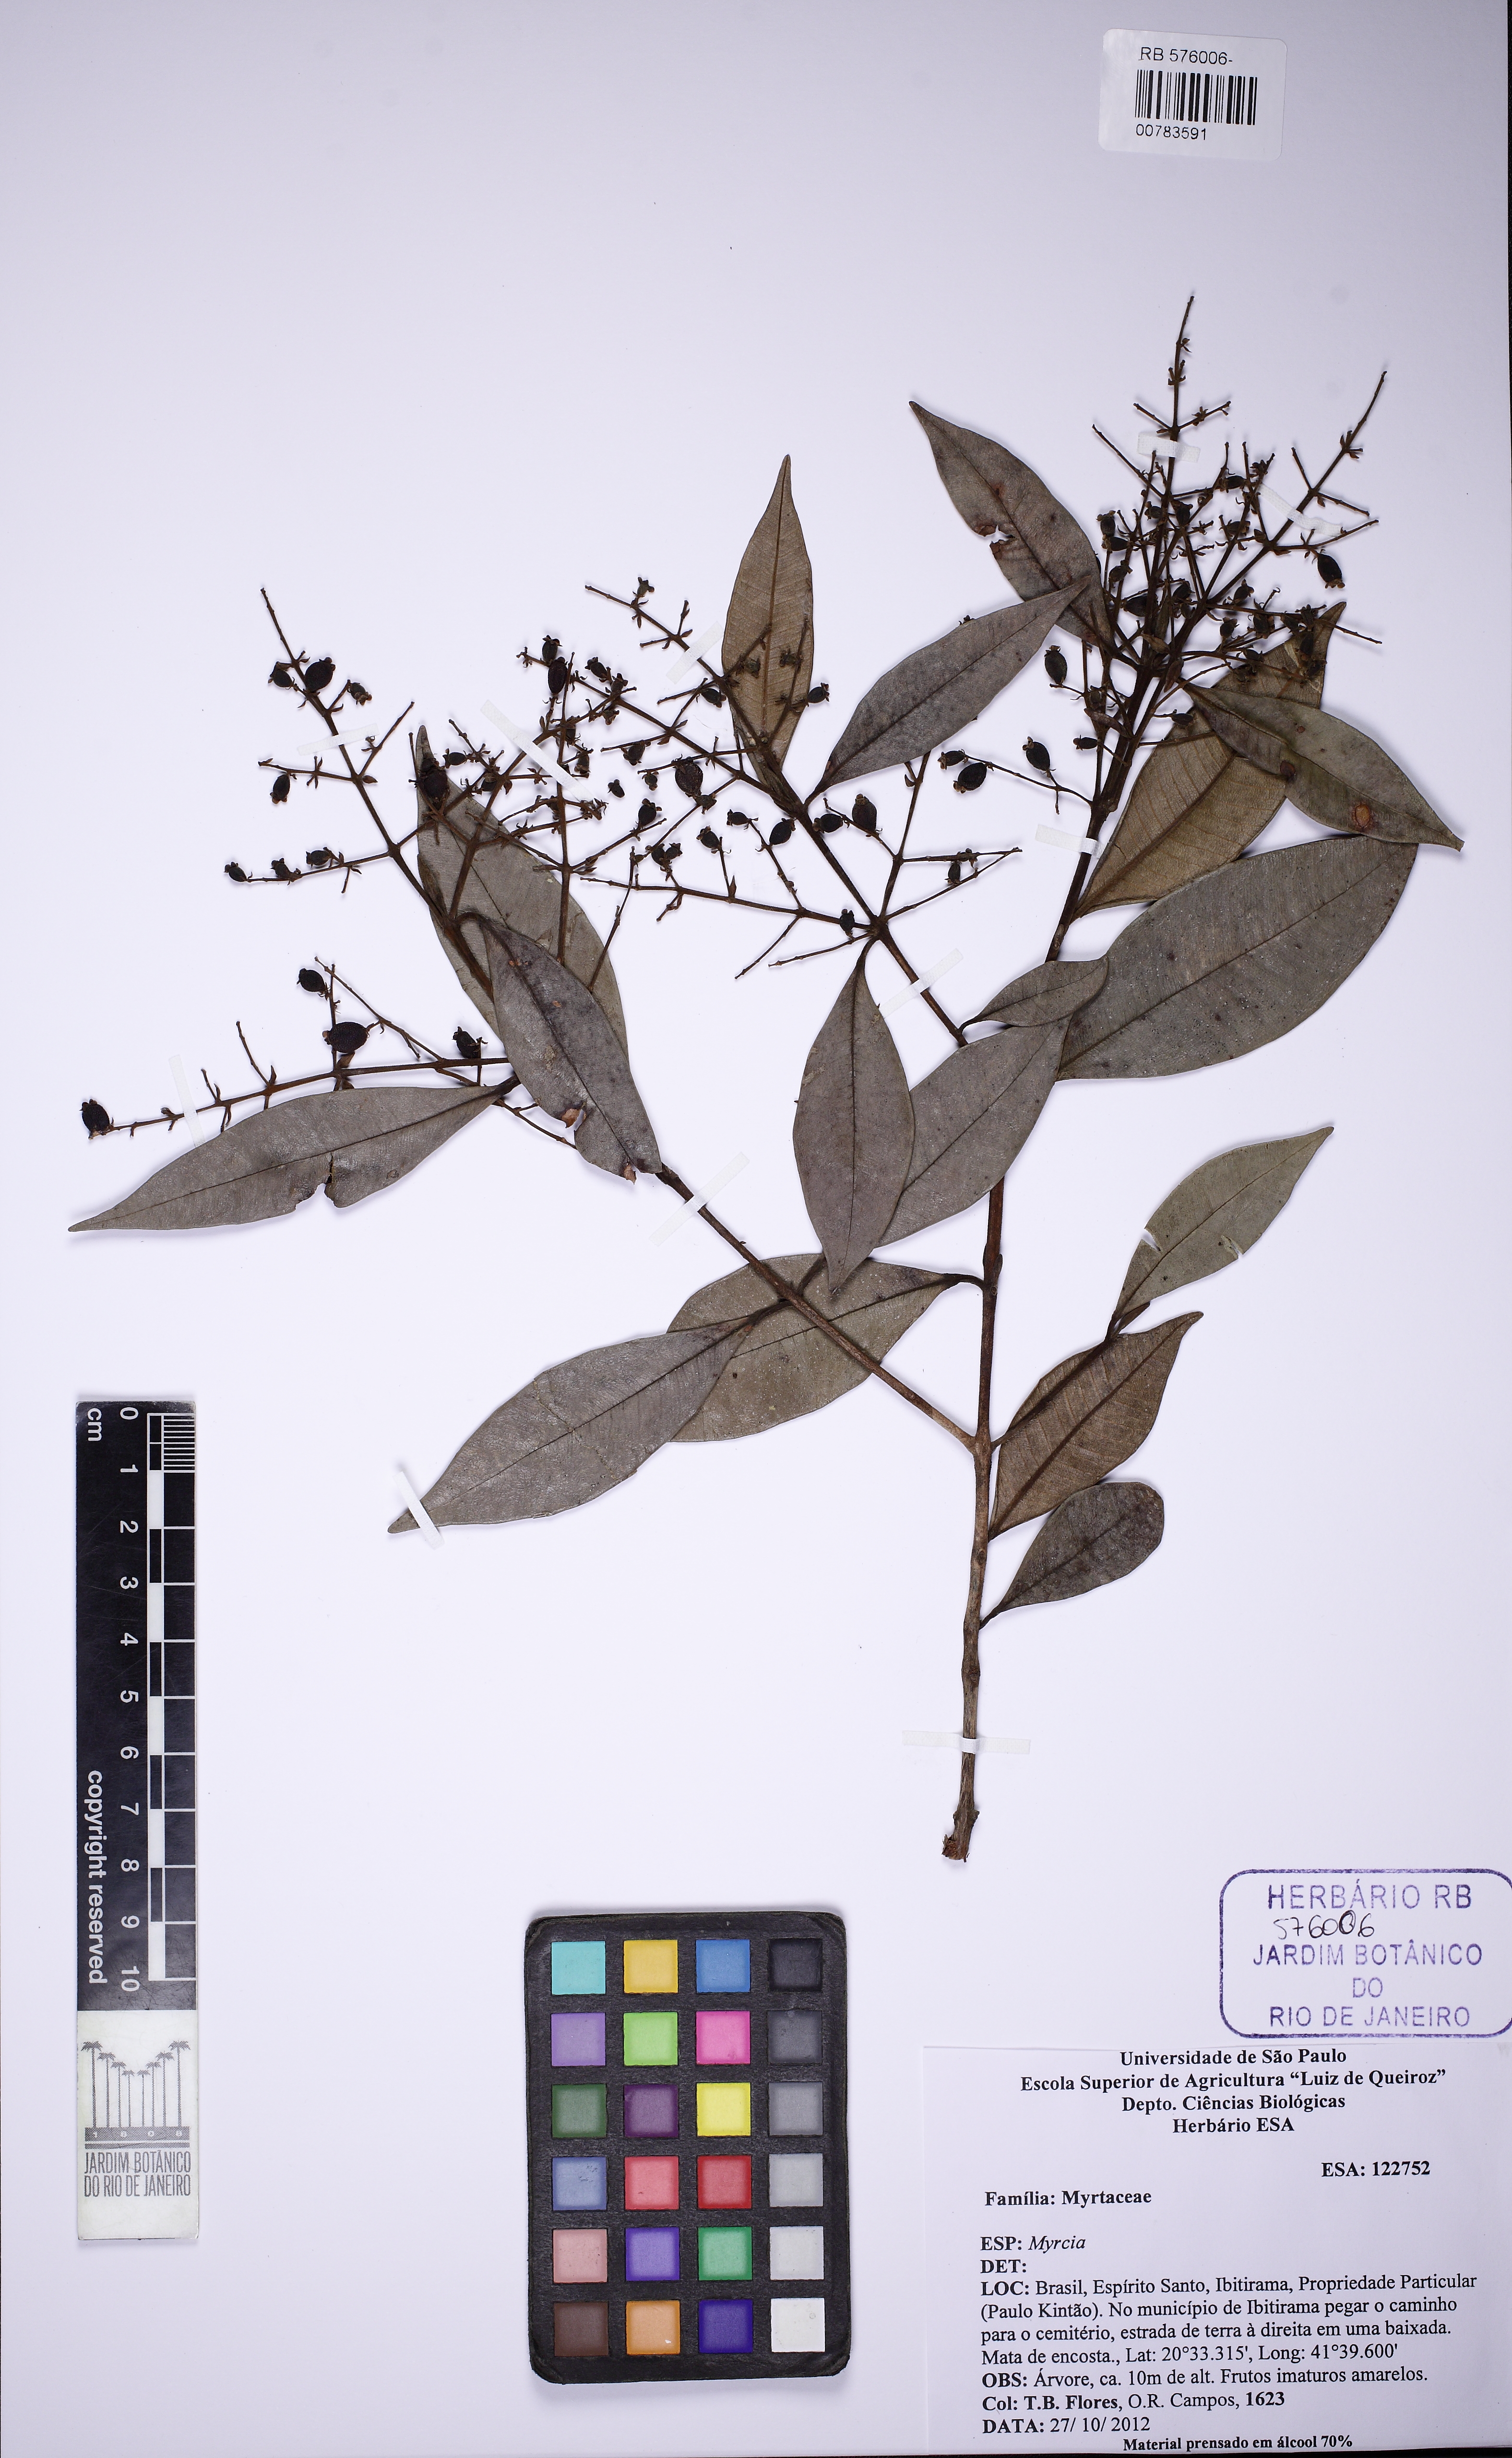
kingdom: Plantae
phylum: Tracheophyta
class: Magnoliopsida
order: Myrtales
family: Myrtaceae
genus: Myrcia
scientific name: Myrcia splendens
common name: Surinam cherry
